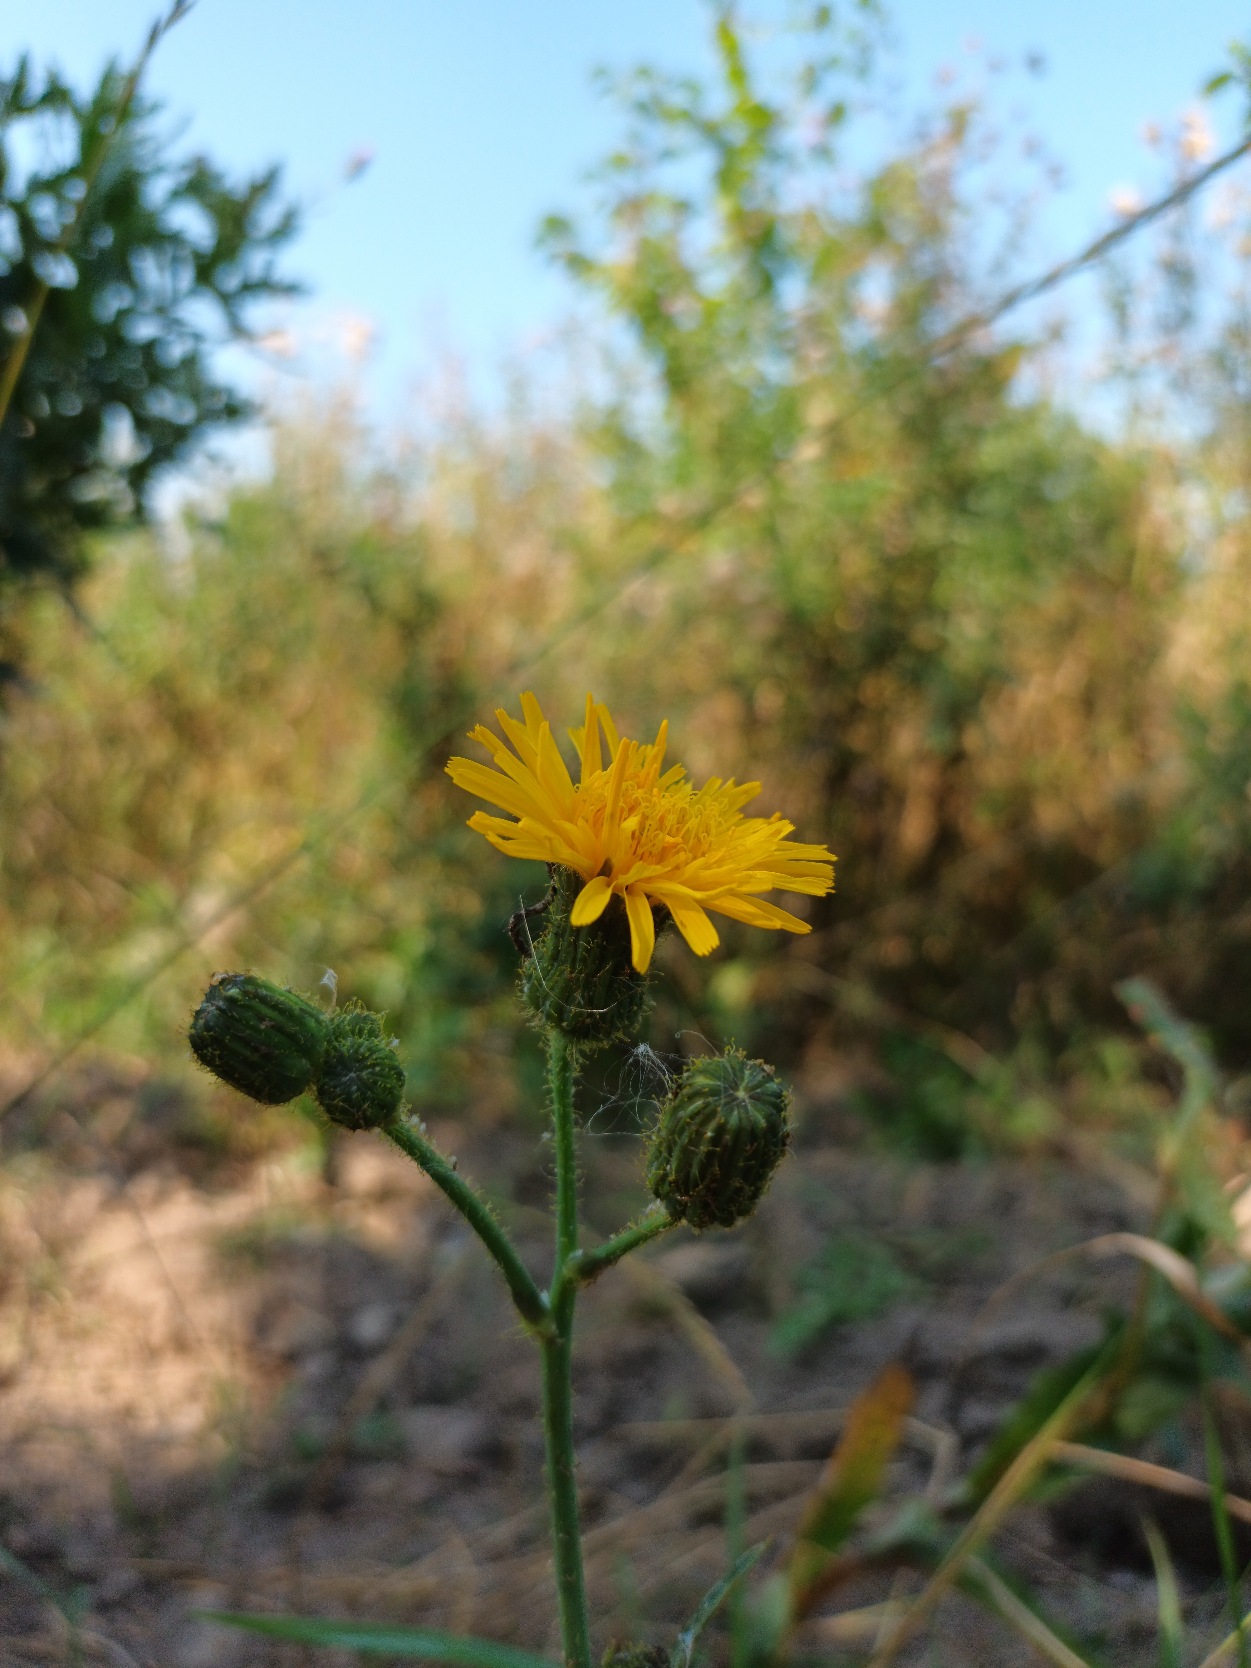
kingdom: Plantae
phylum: Tracheophyta
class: Magnoliopsida
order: Asterales
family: Asteraceae
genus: Sonchus
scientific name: Sonchus arvensis
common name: Ager-svinemælk
